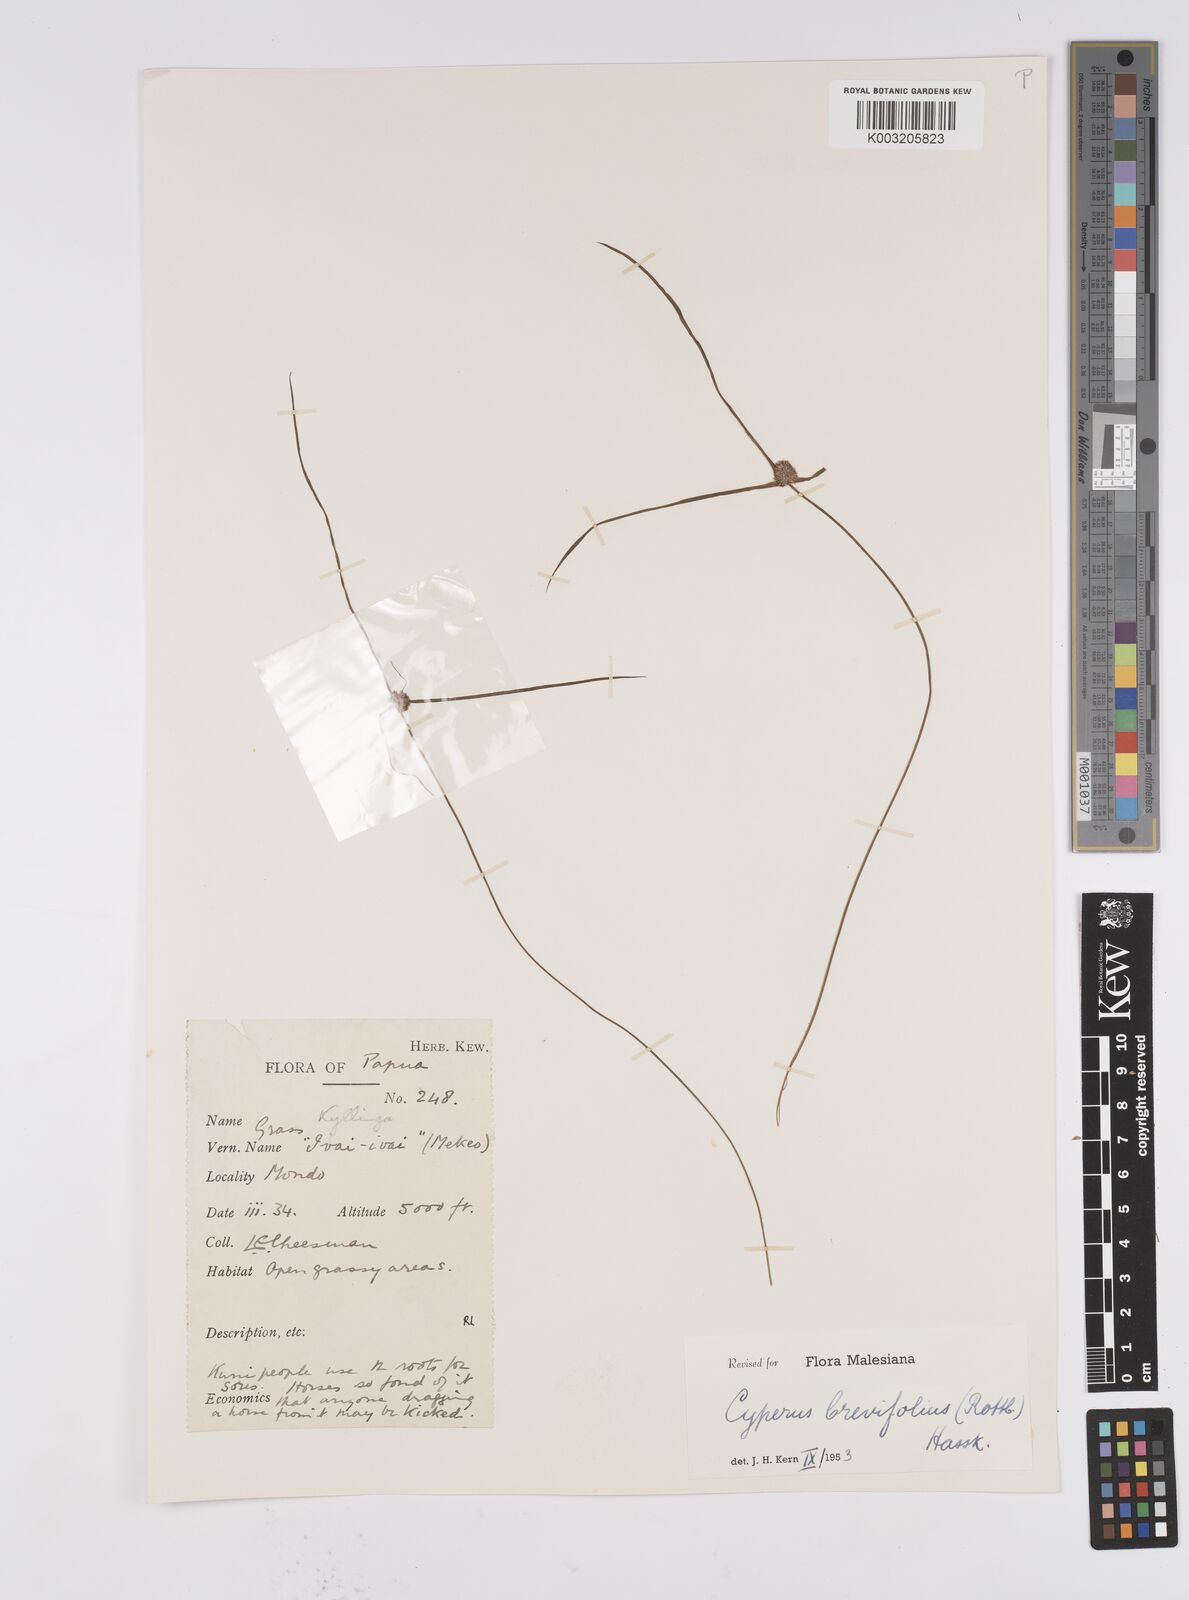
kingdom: Plantae
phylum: Tracheophyta
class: Liliopsida
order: Poales
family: Cyperaceae
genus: Cyperus
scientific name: Cyperus brevifolius
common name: Globe kyllinga
